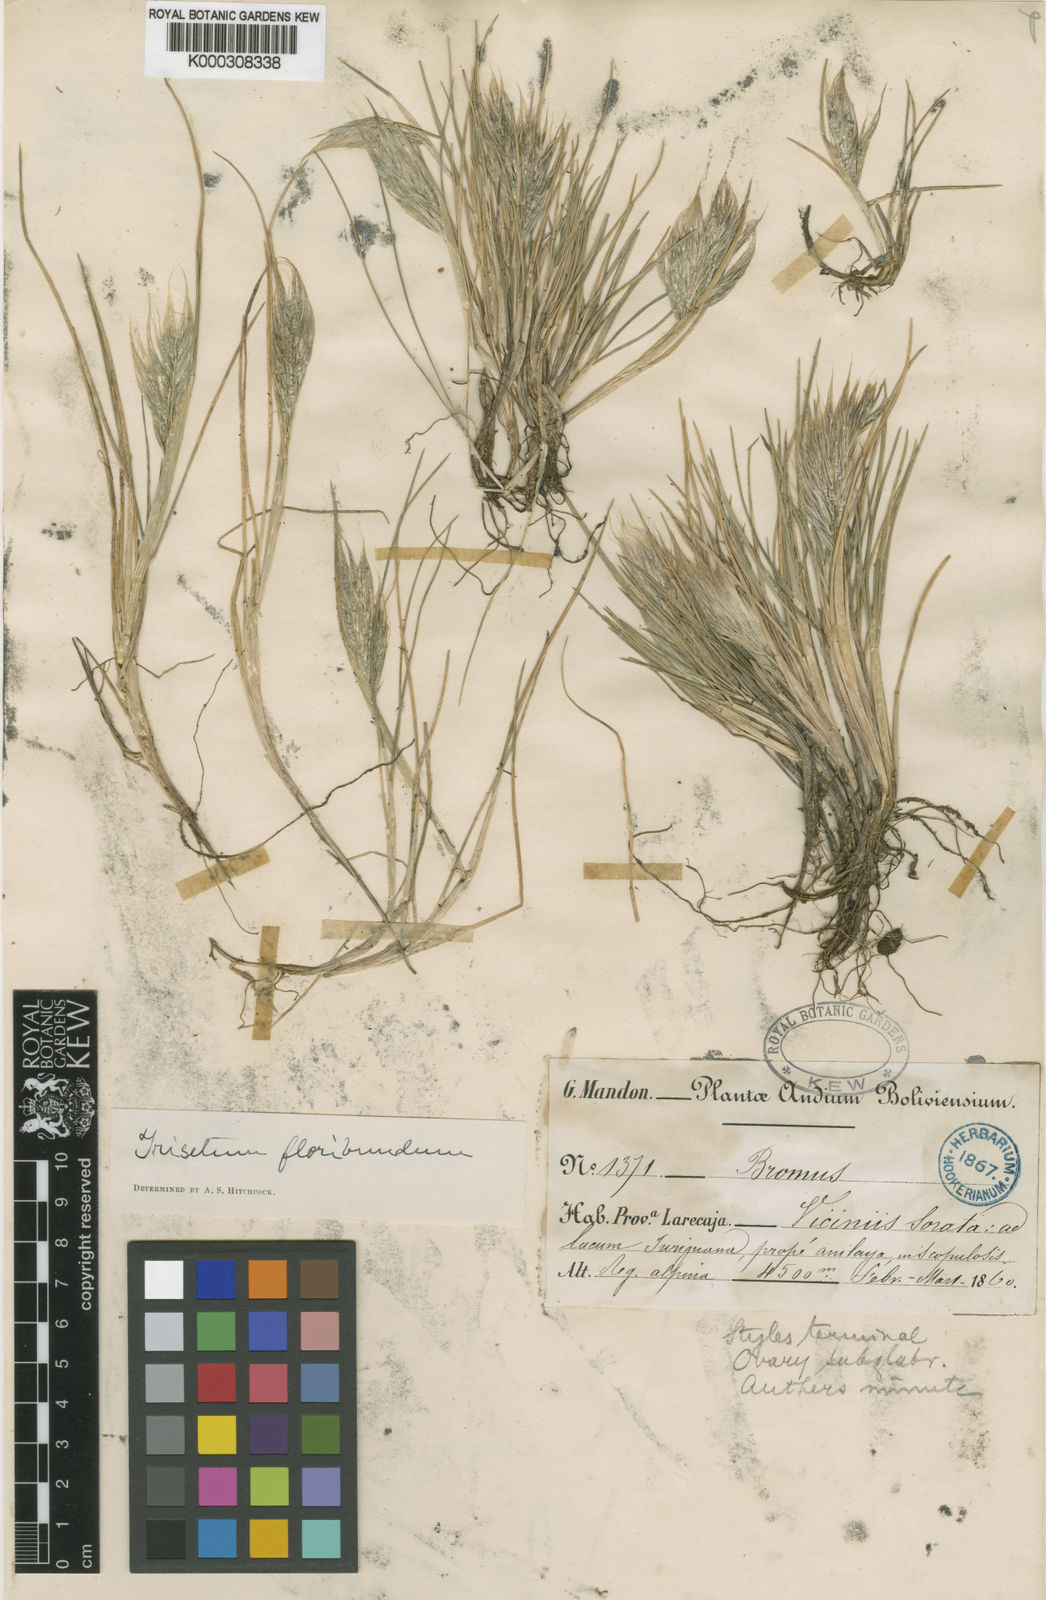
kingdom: Plantae
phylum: Tracheophyta
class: Liliopsida
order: Poales
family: Poaceae
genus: Festuca
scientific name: Festuca floribunda
